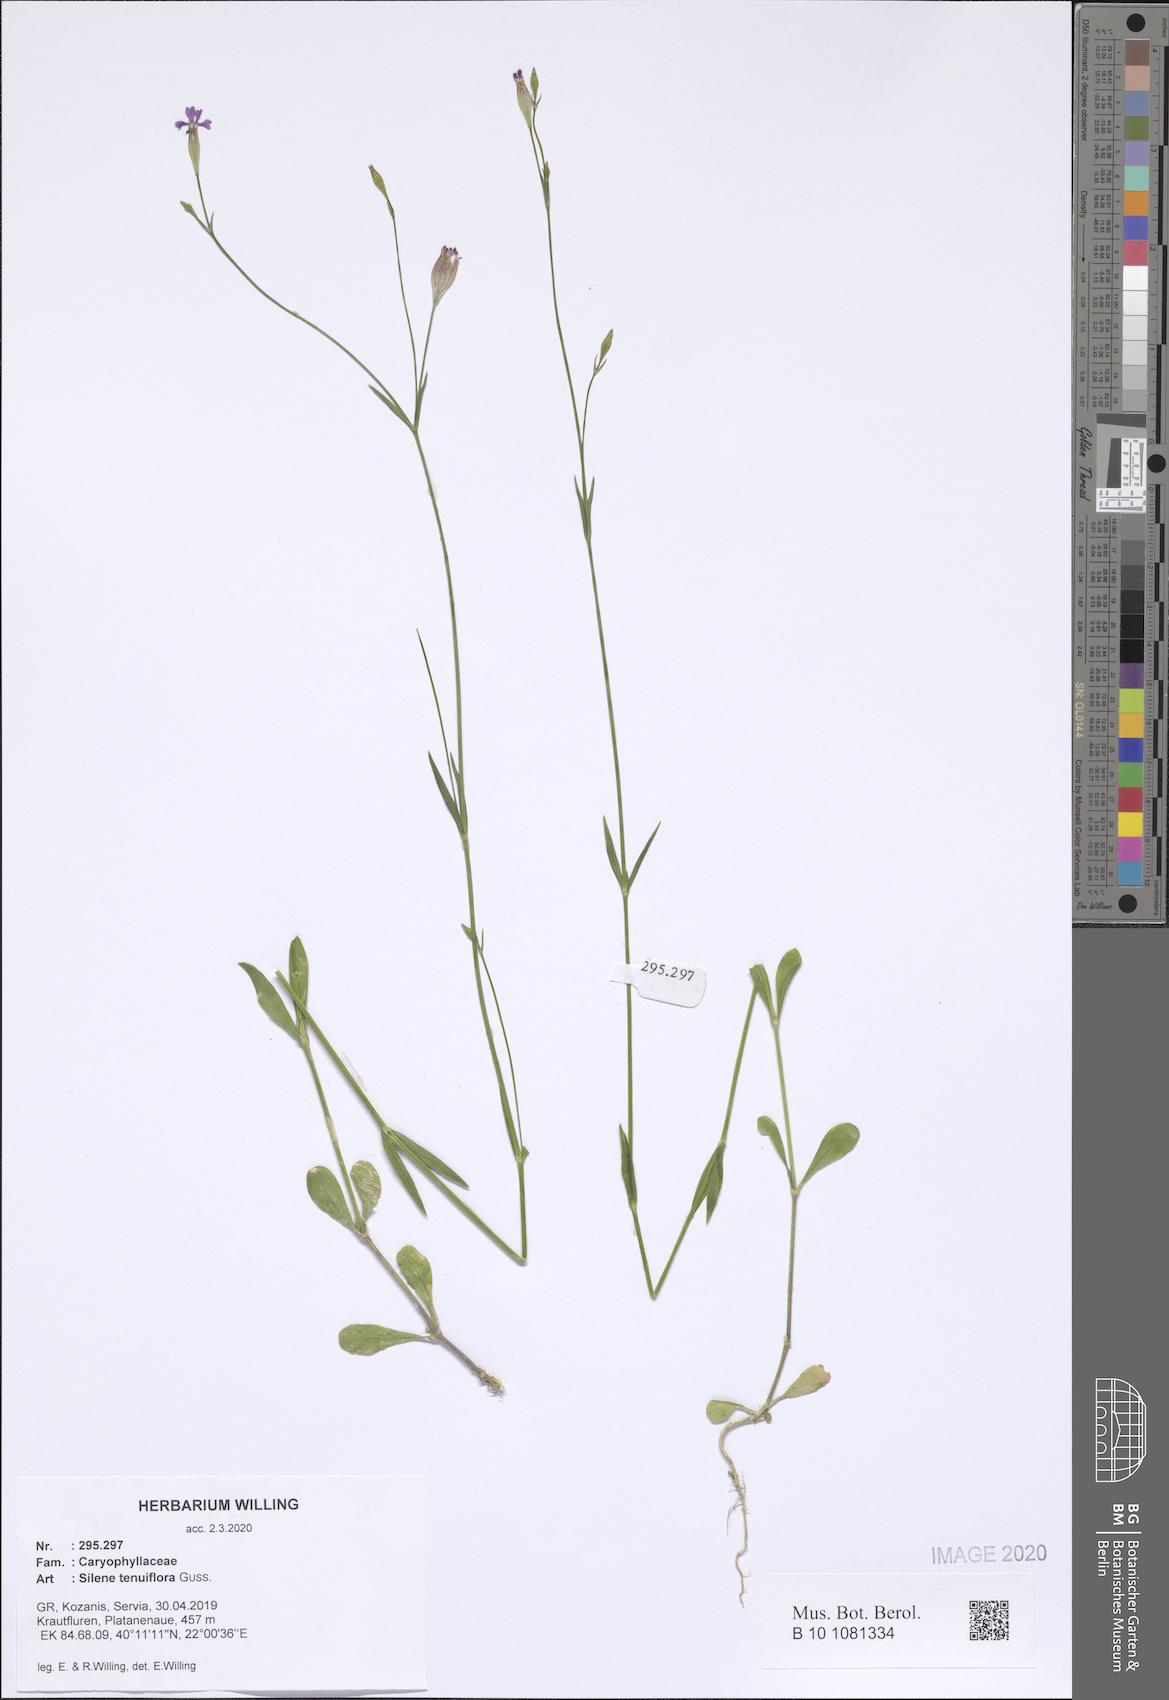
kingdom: Plantae
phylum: Tracheophyta
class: Magnoliopsida
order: Caryophyllales
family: Caryophyllaceae
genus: Silene
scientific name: Silene tenuiflora
